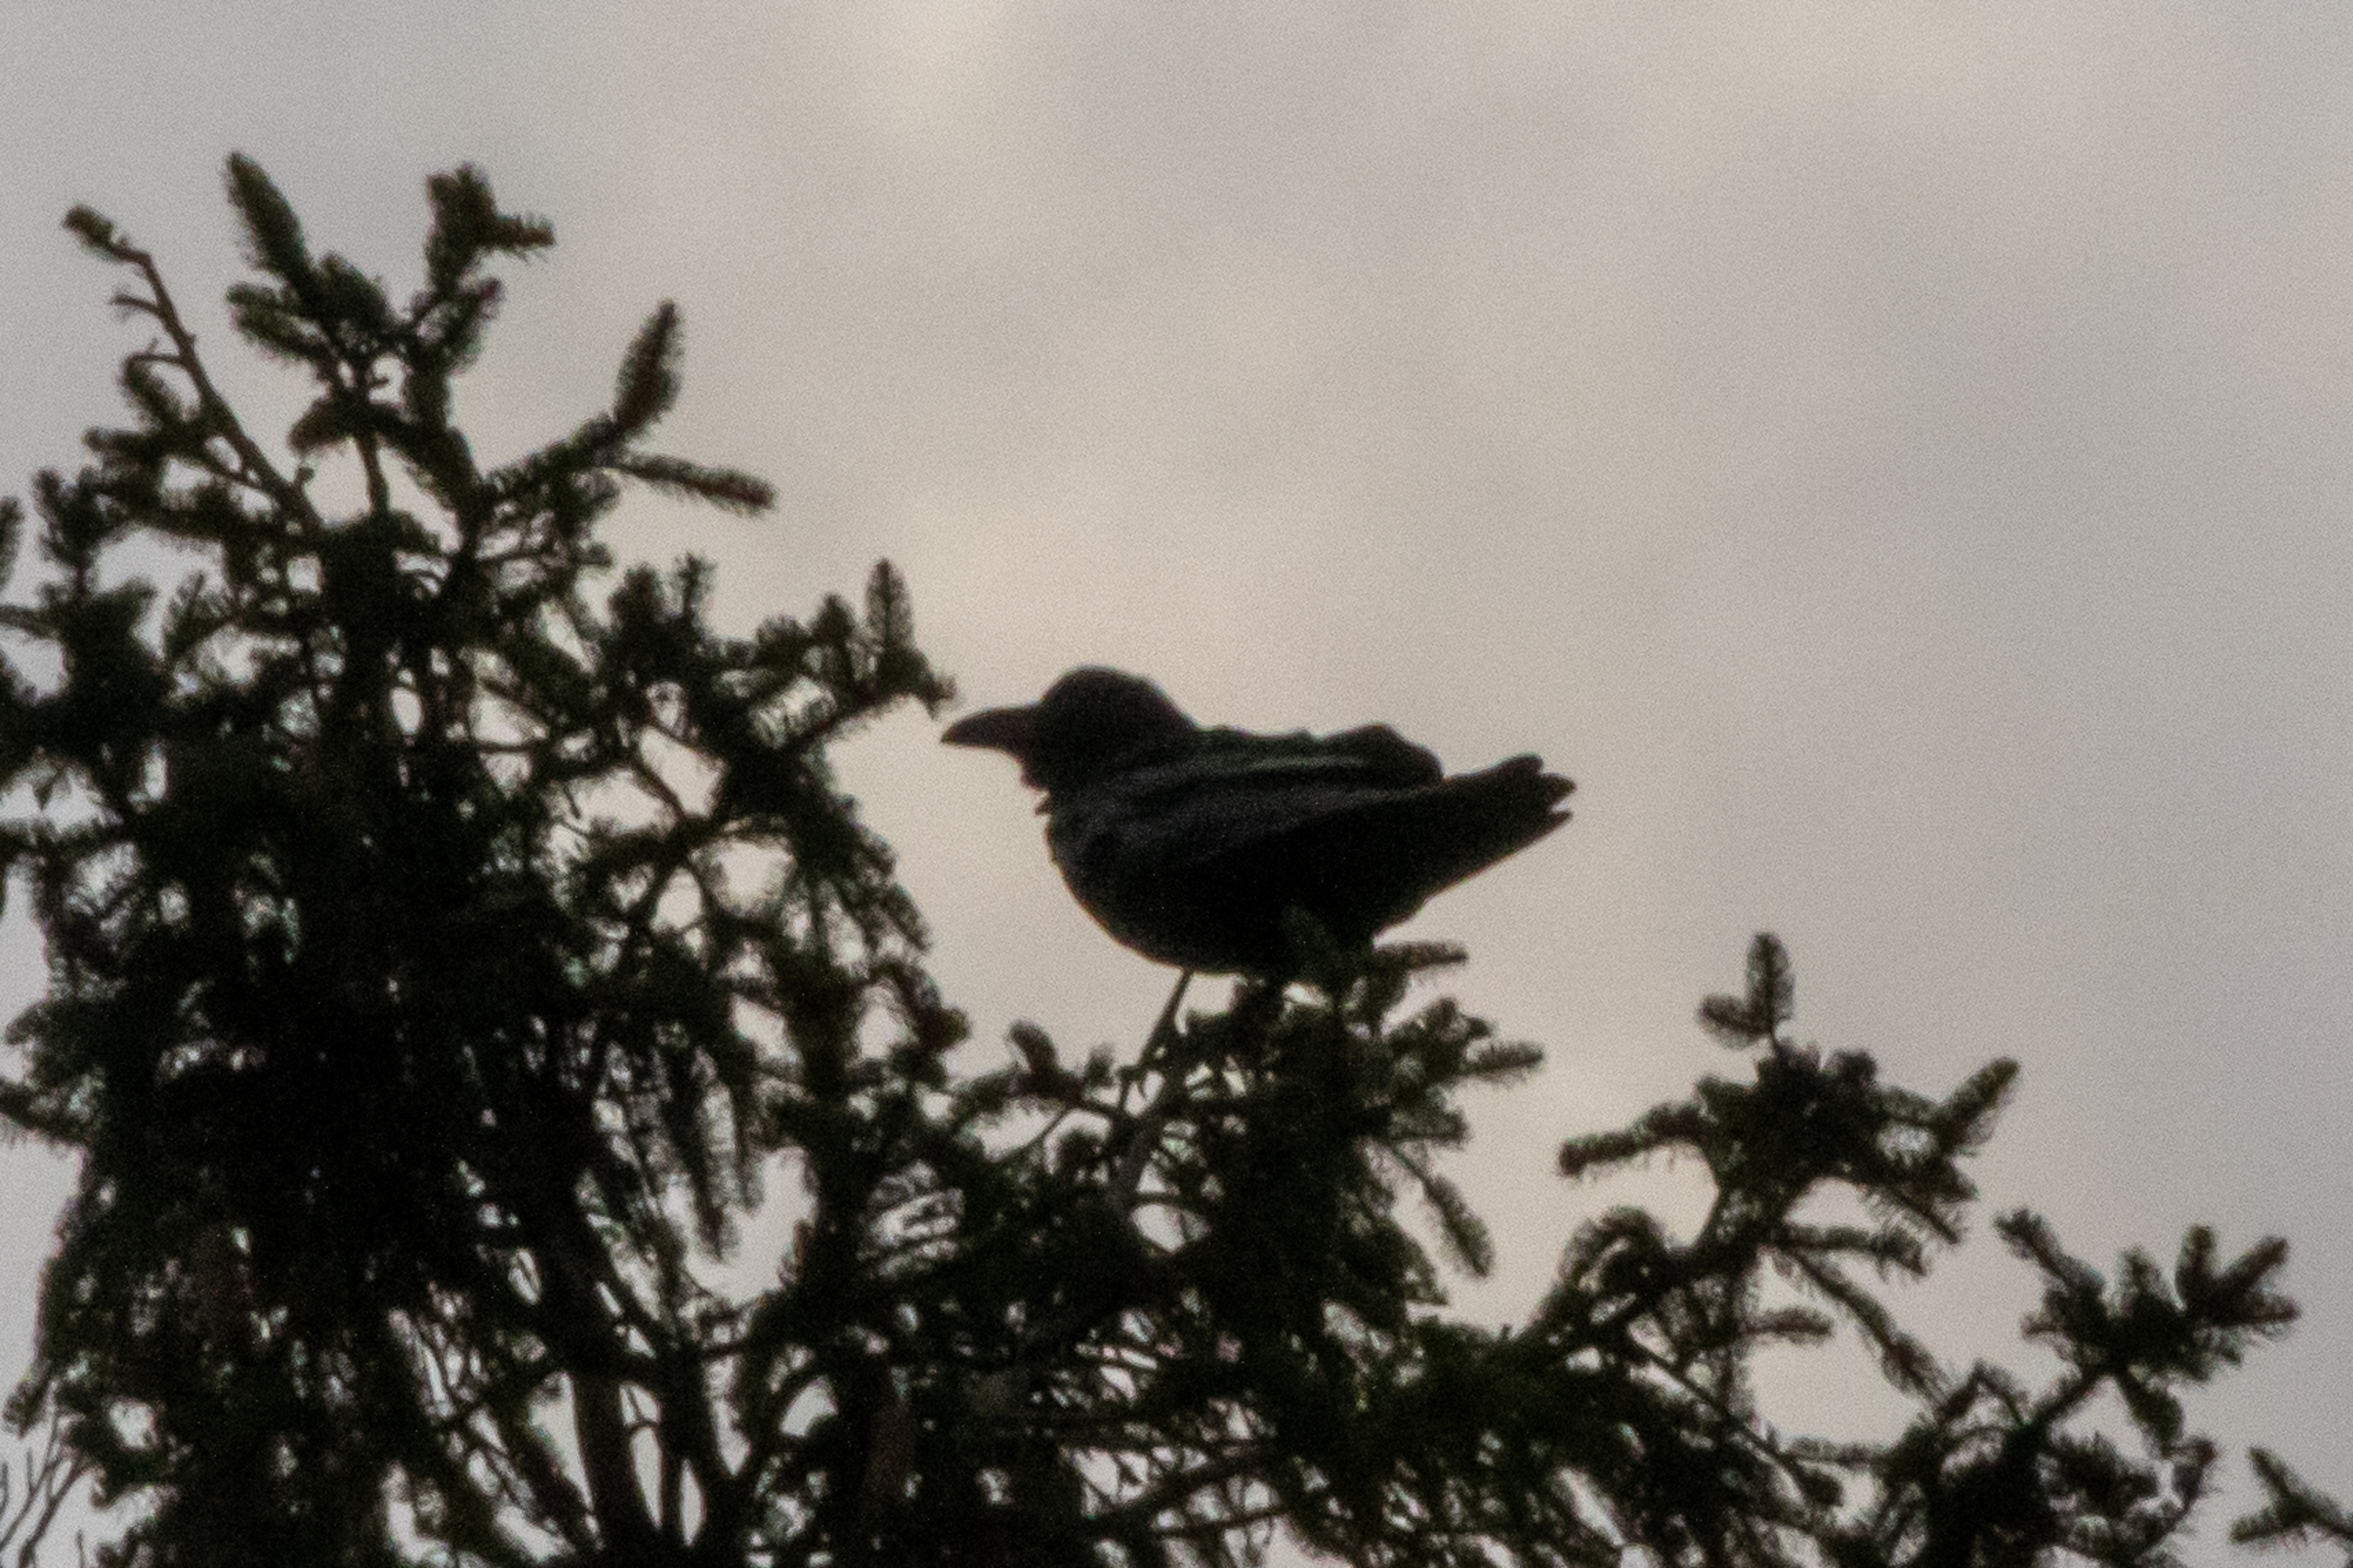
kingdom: Animalia
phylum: Chordata
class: Aves
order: Passeriformes
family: Corvidae
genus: Corvus
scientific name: Corvus corax
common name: Ravn
